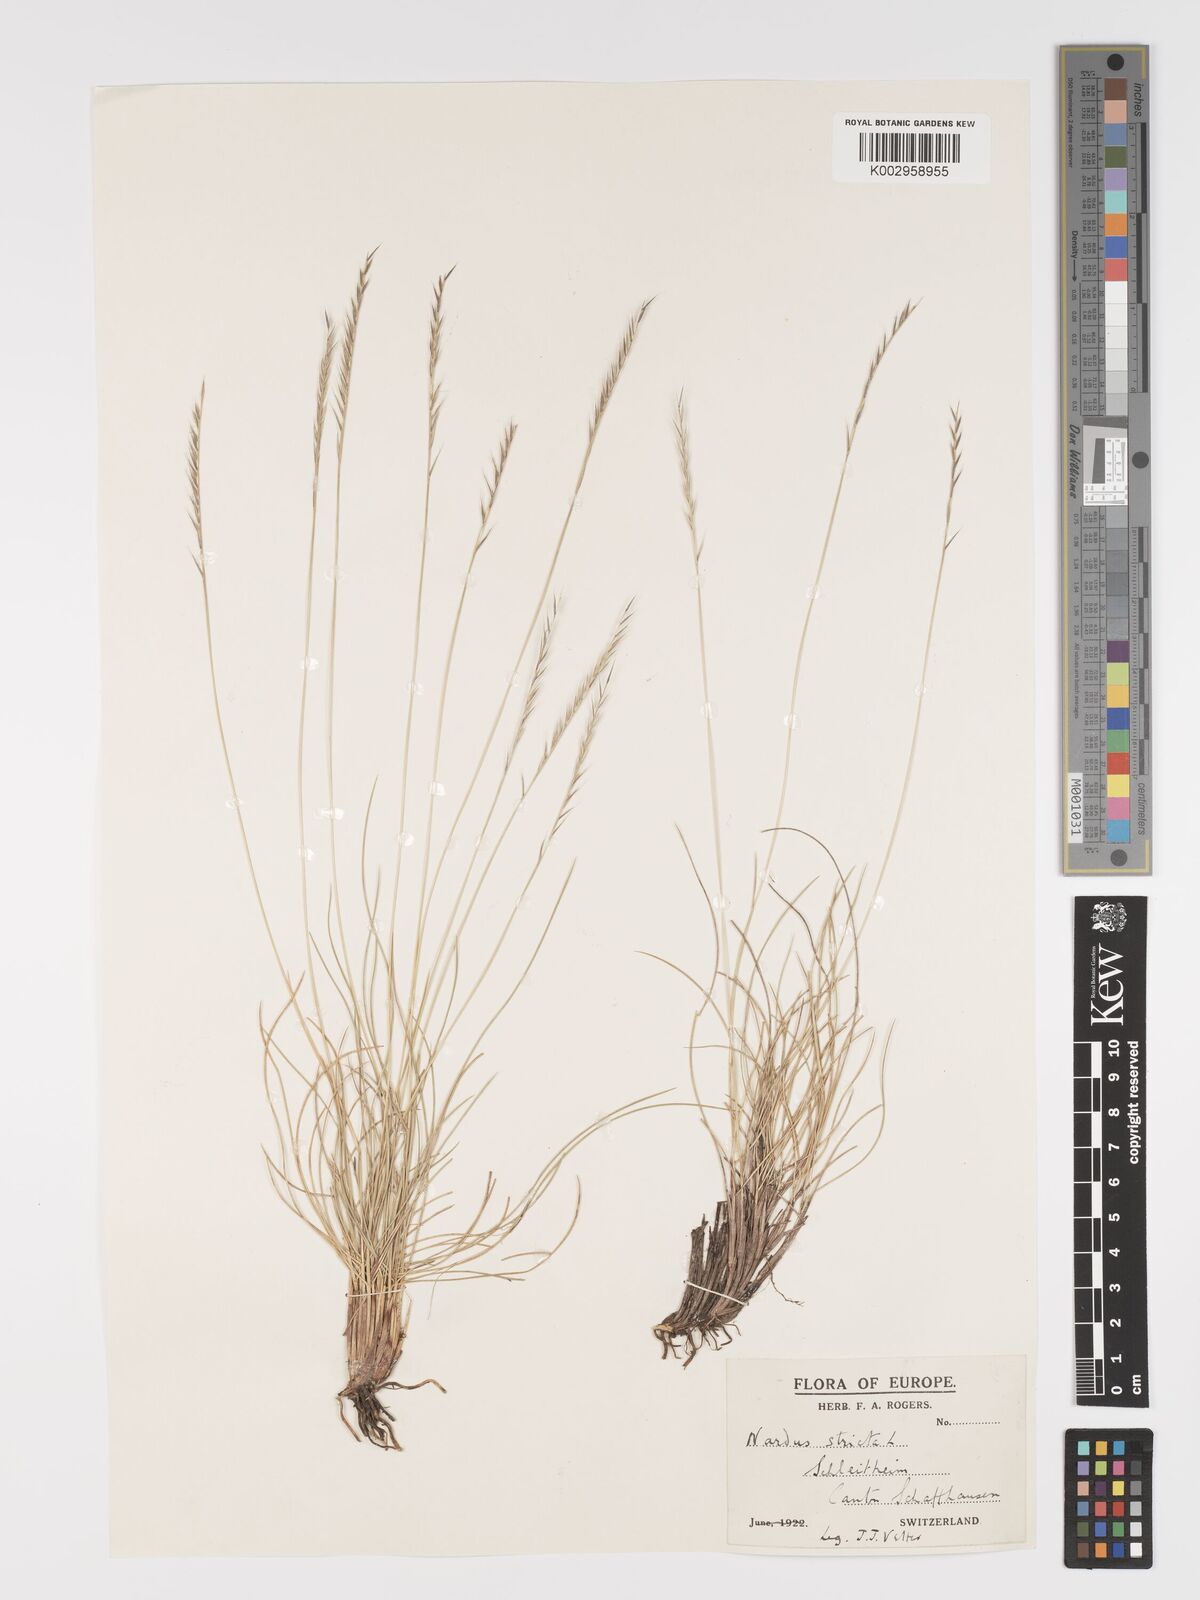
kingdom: Plantae
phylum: Tracheophyta
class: Liliopsida
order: Poales
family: Poaceae
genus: Nardus
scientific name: Nardus stricta
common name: Mat-grass
